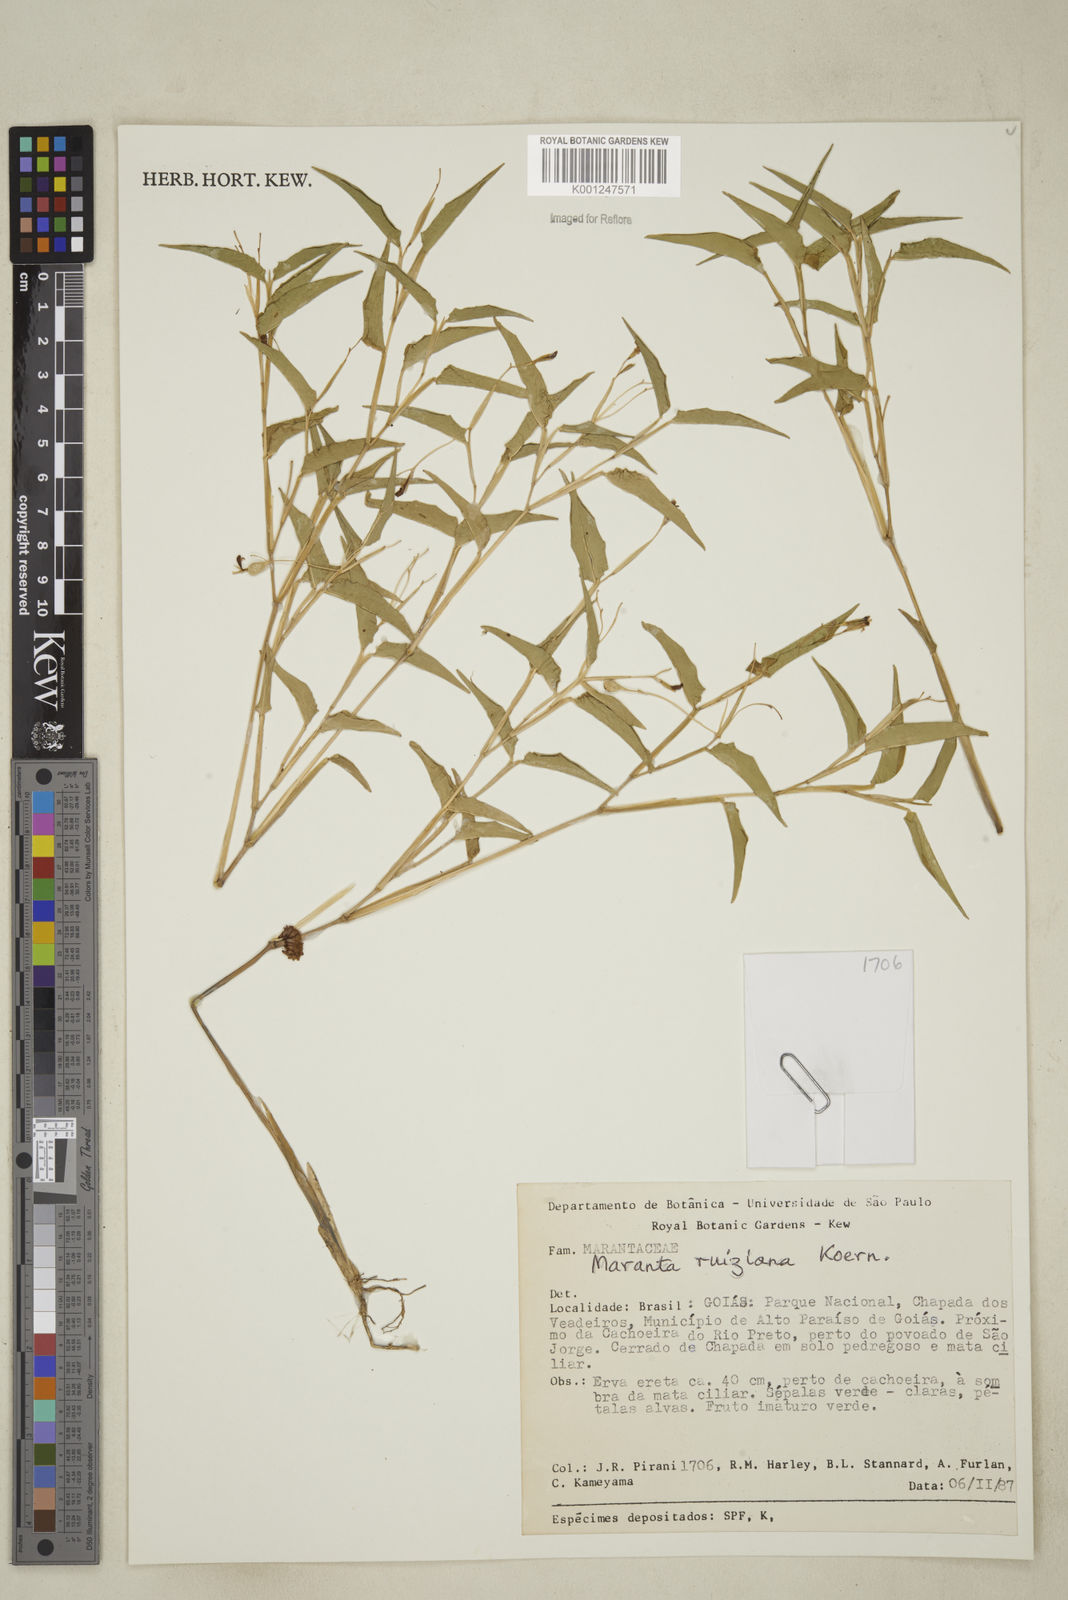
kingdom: Plantae
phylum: Tracheophyta
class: Liliopsida
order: Zingiberales
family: Marantaceae
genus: Maranta
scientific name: Maranta ruiziana
